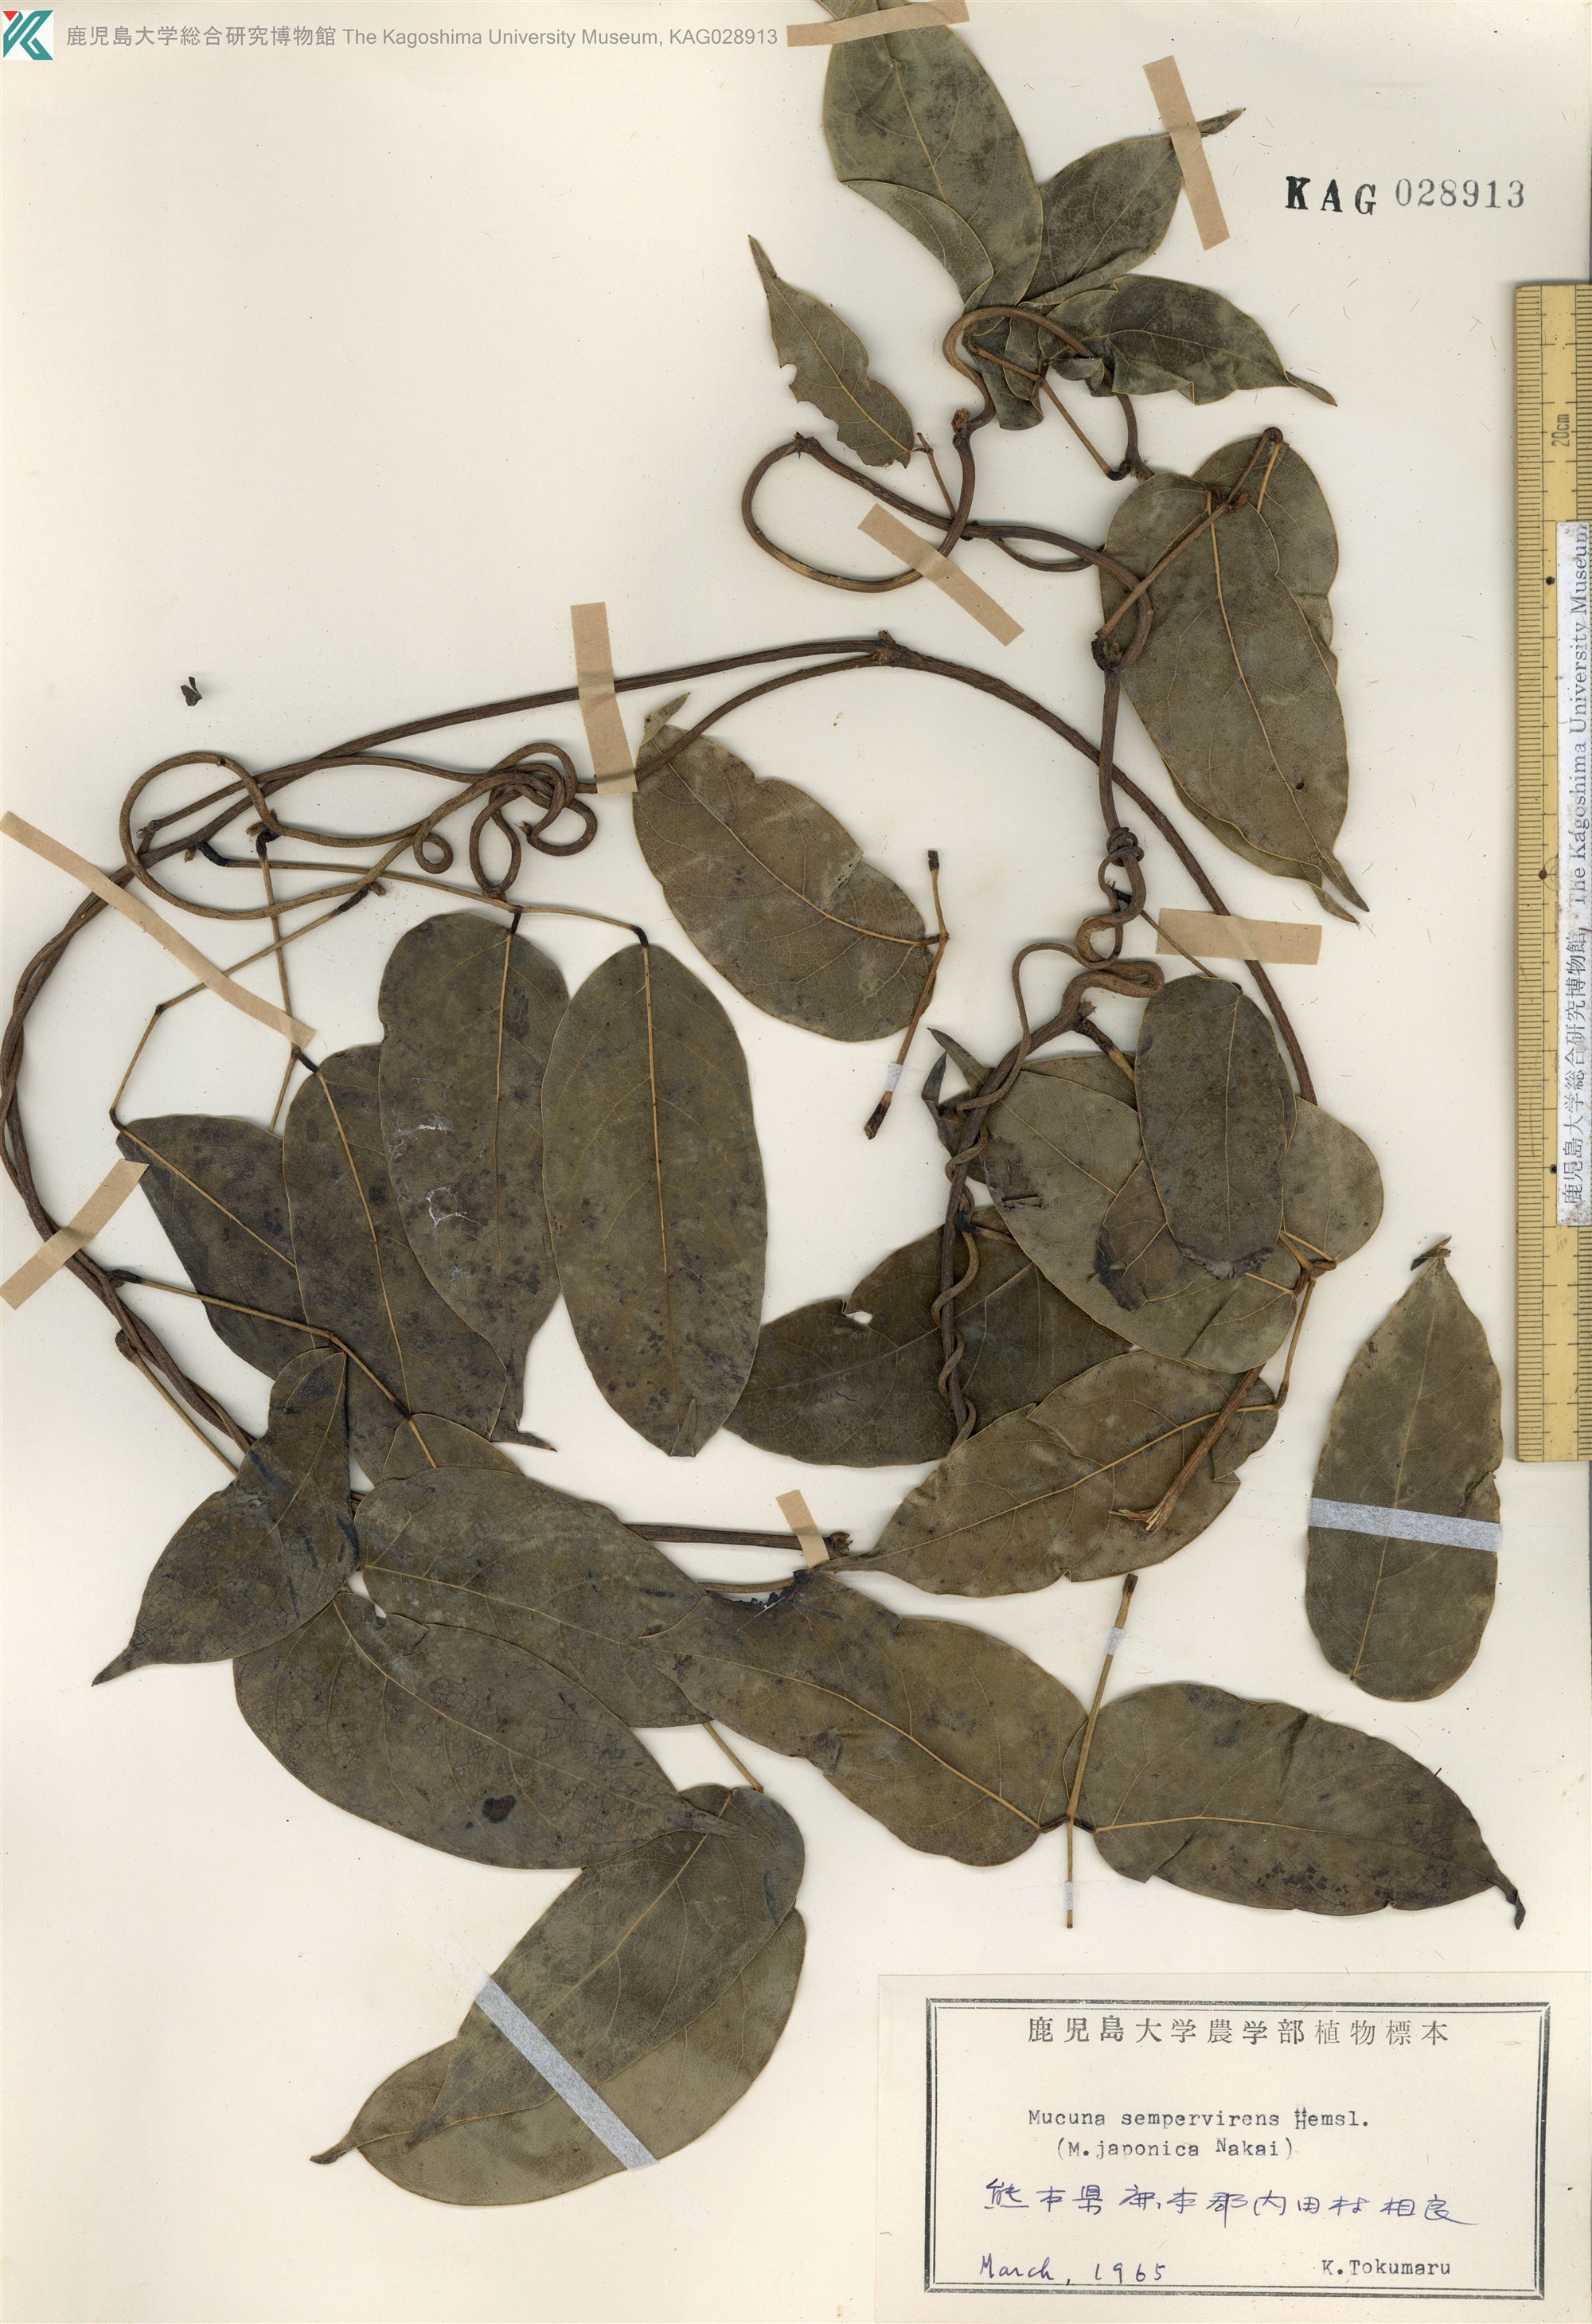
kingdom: Plantae
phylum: Tracheophyta
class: Magnoliopsida
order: Fabales
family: Fabaceae
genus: Mucuna
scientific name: Mucuna sempervirens
